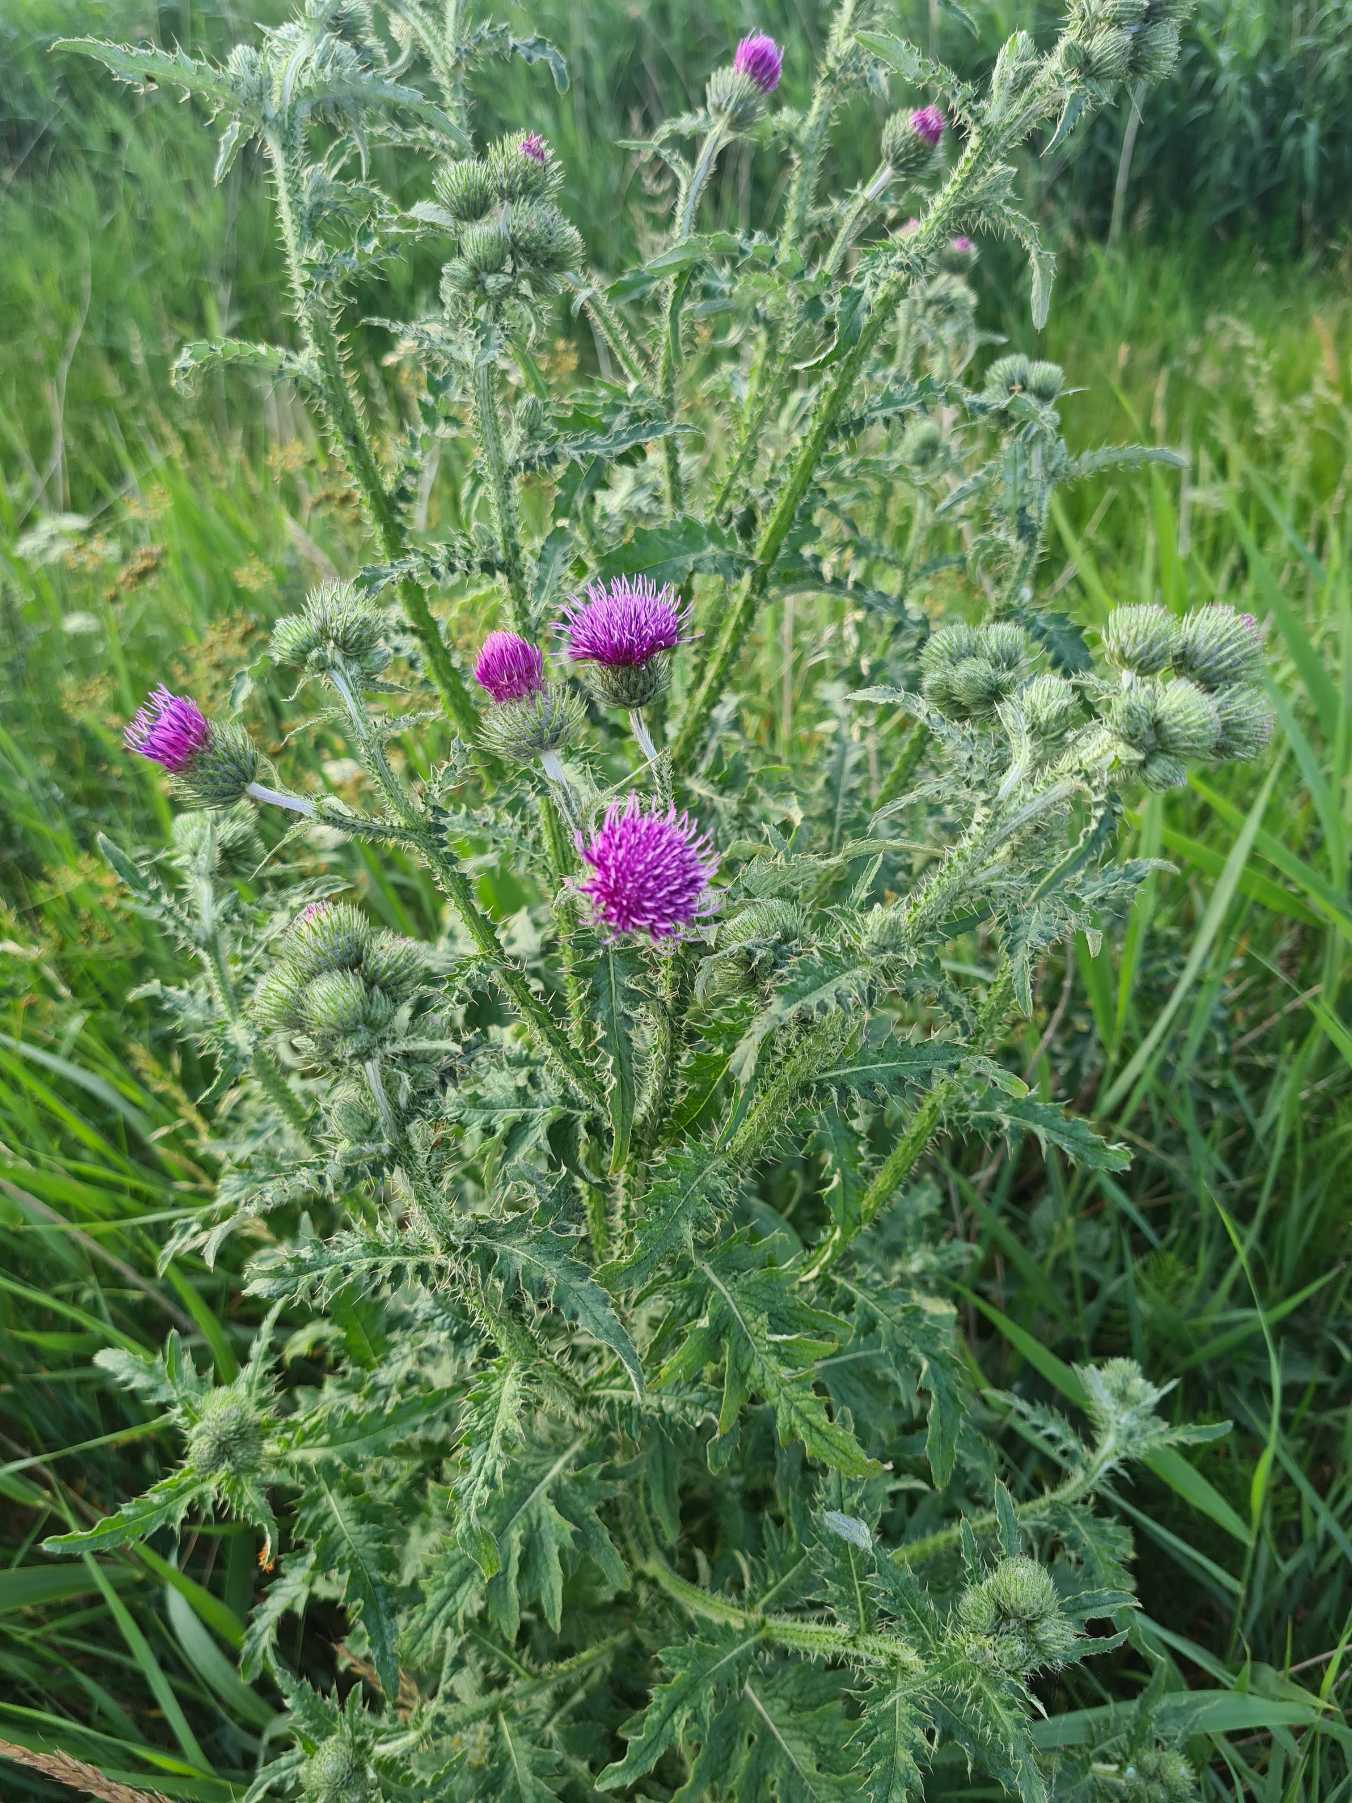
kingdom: Plantae
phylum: Tracheophyta
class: Magnoliopsida
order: Asterales
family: Asteraceae
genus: Carduus
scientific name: Carduus crispus
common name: Kruset tidsel
